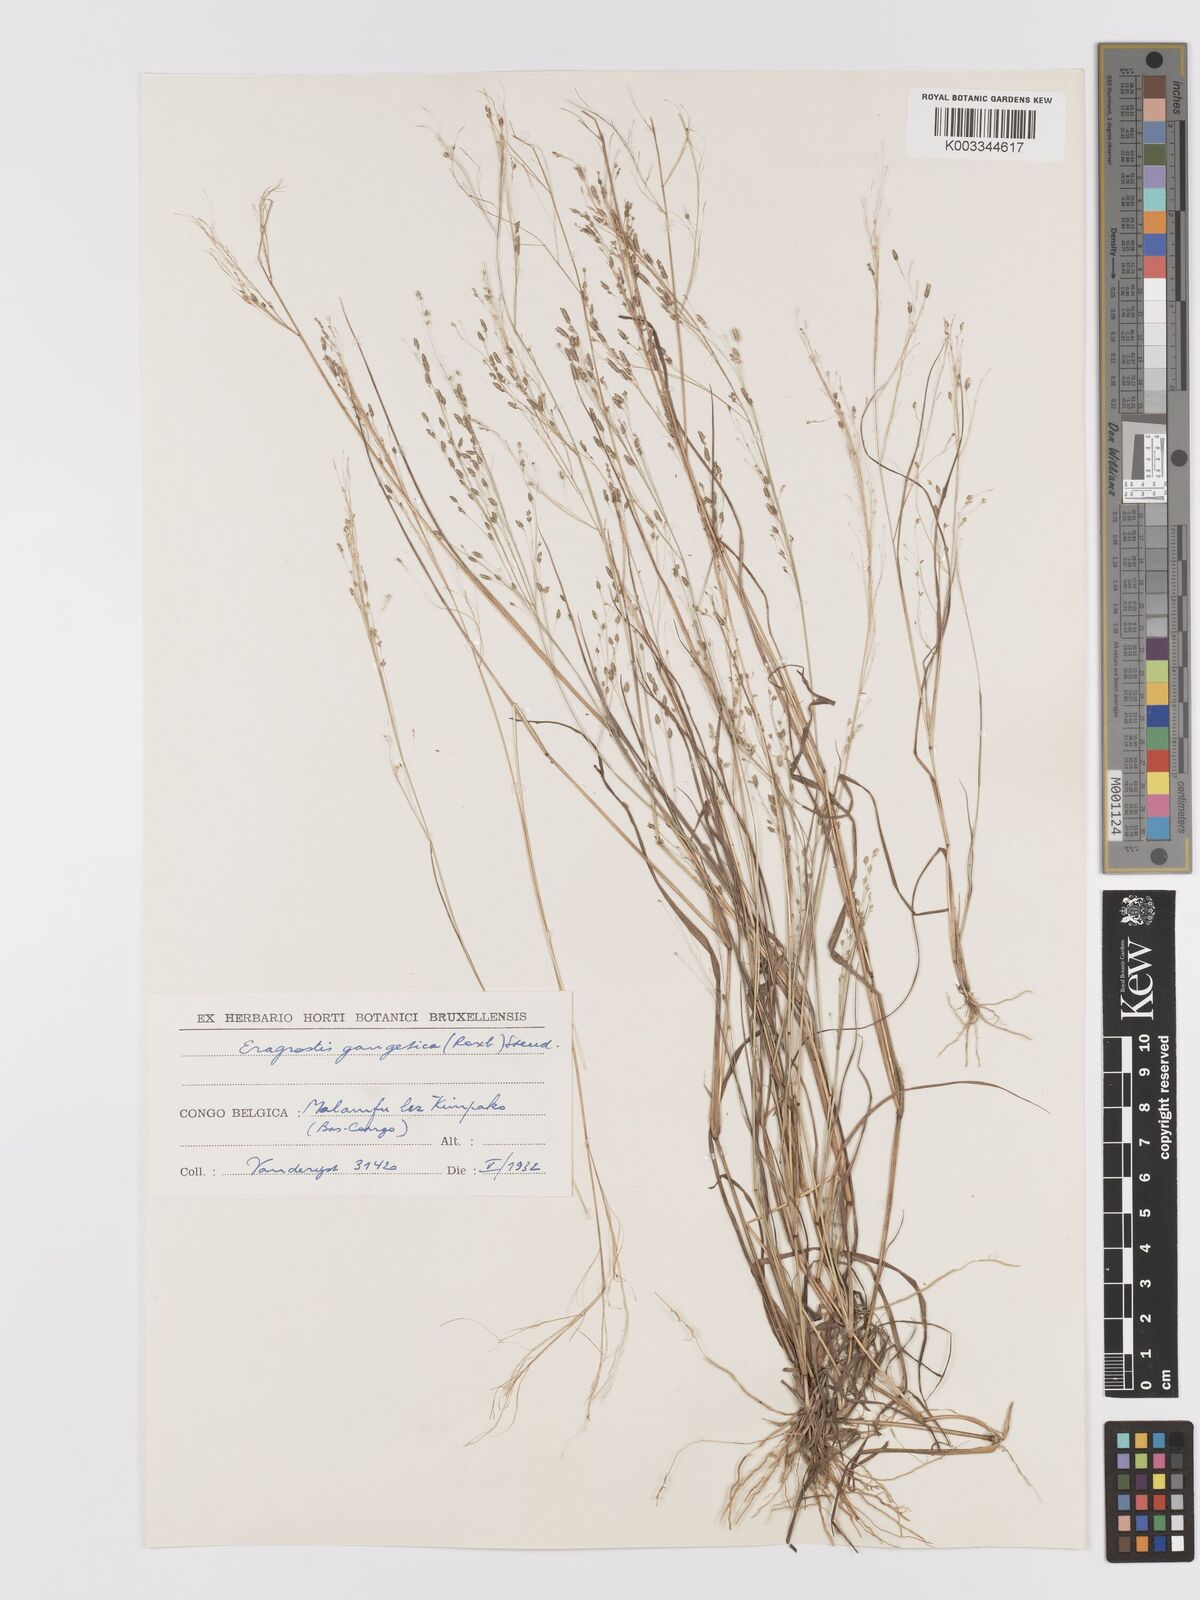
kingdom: Plantae
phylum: Tracheophyta
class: Liliopsida
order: Poales
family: Poaceae
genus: Eragrostis
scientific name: Eragrostis gangetica
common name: Slimflower lovegrass
